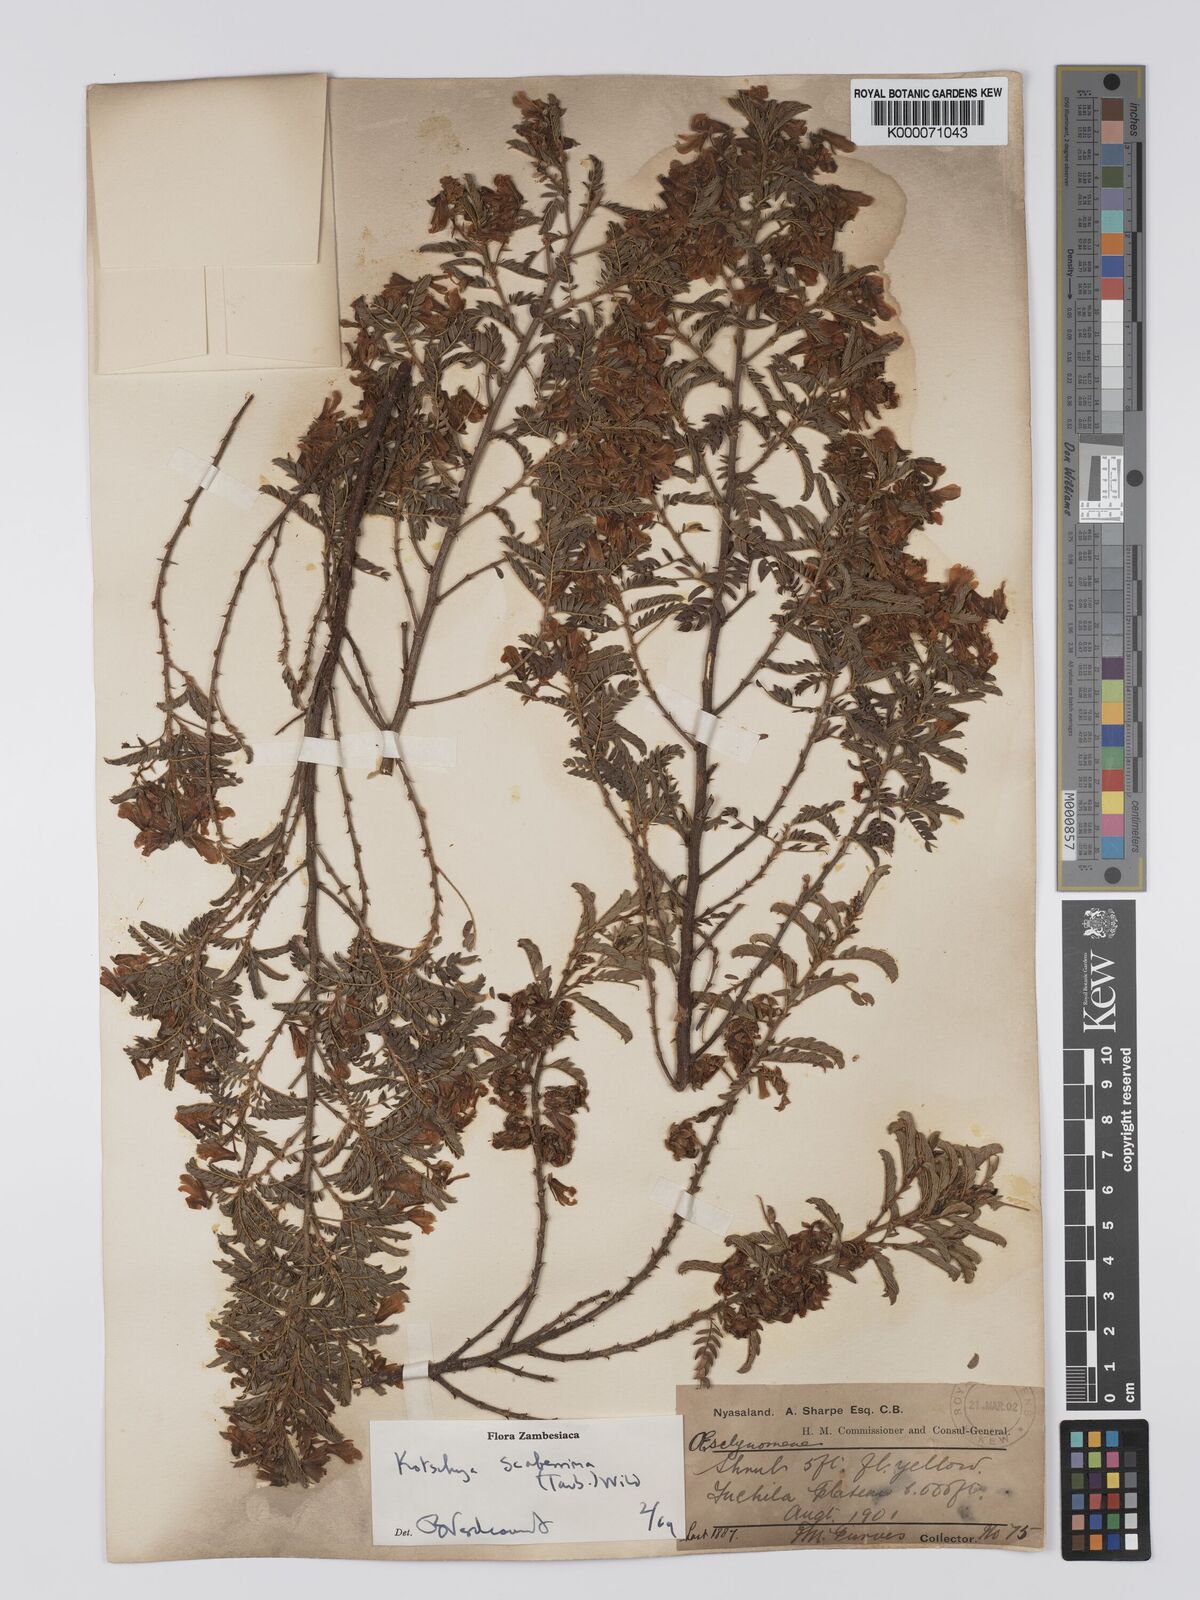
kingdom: Plantae
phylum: Tracheophyta
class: Magnoliopsida
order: Fabales
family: Fabaceae
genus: Kotschya
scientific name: Kotschya scaberrima
